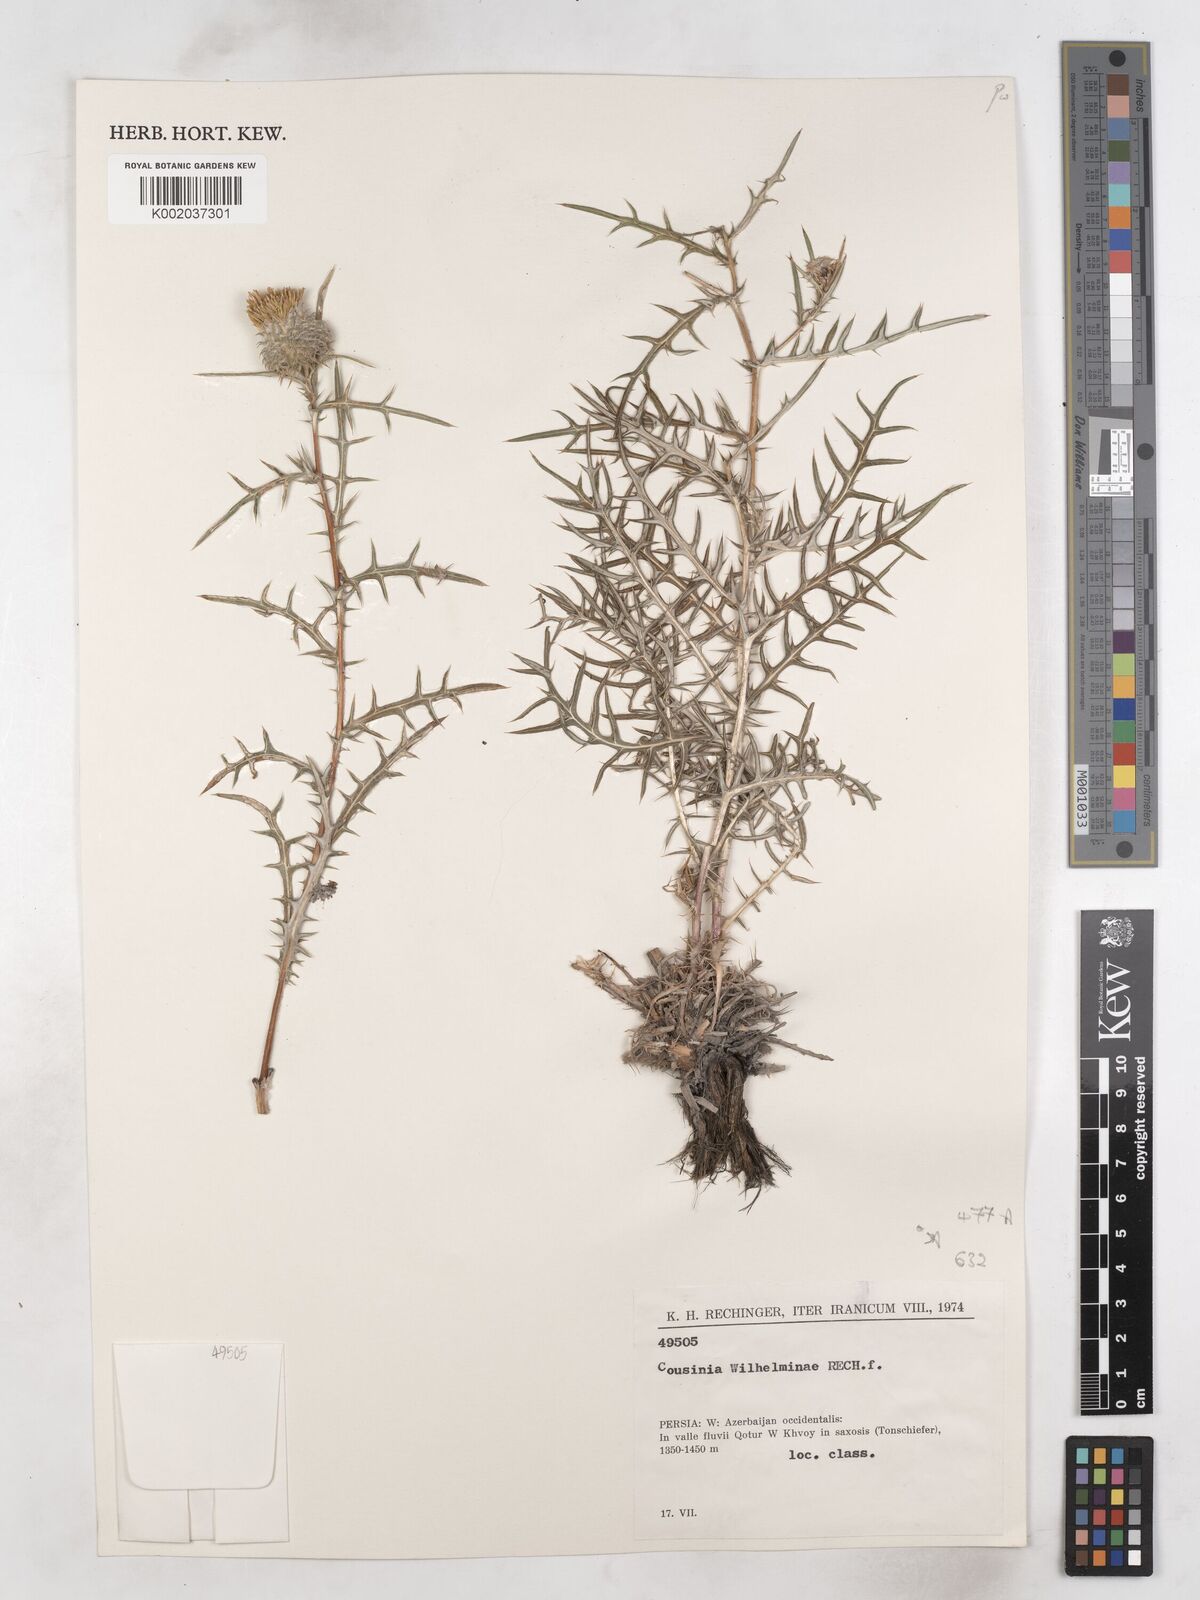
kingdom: Plantae
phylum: Tracheophyta
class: Magnoliopsida
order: Asterales
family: Asteraceae
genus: Cousinia
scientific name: Cousinia wilhelminae
